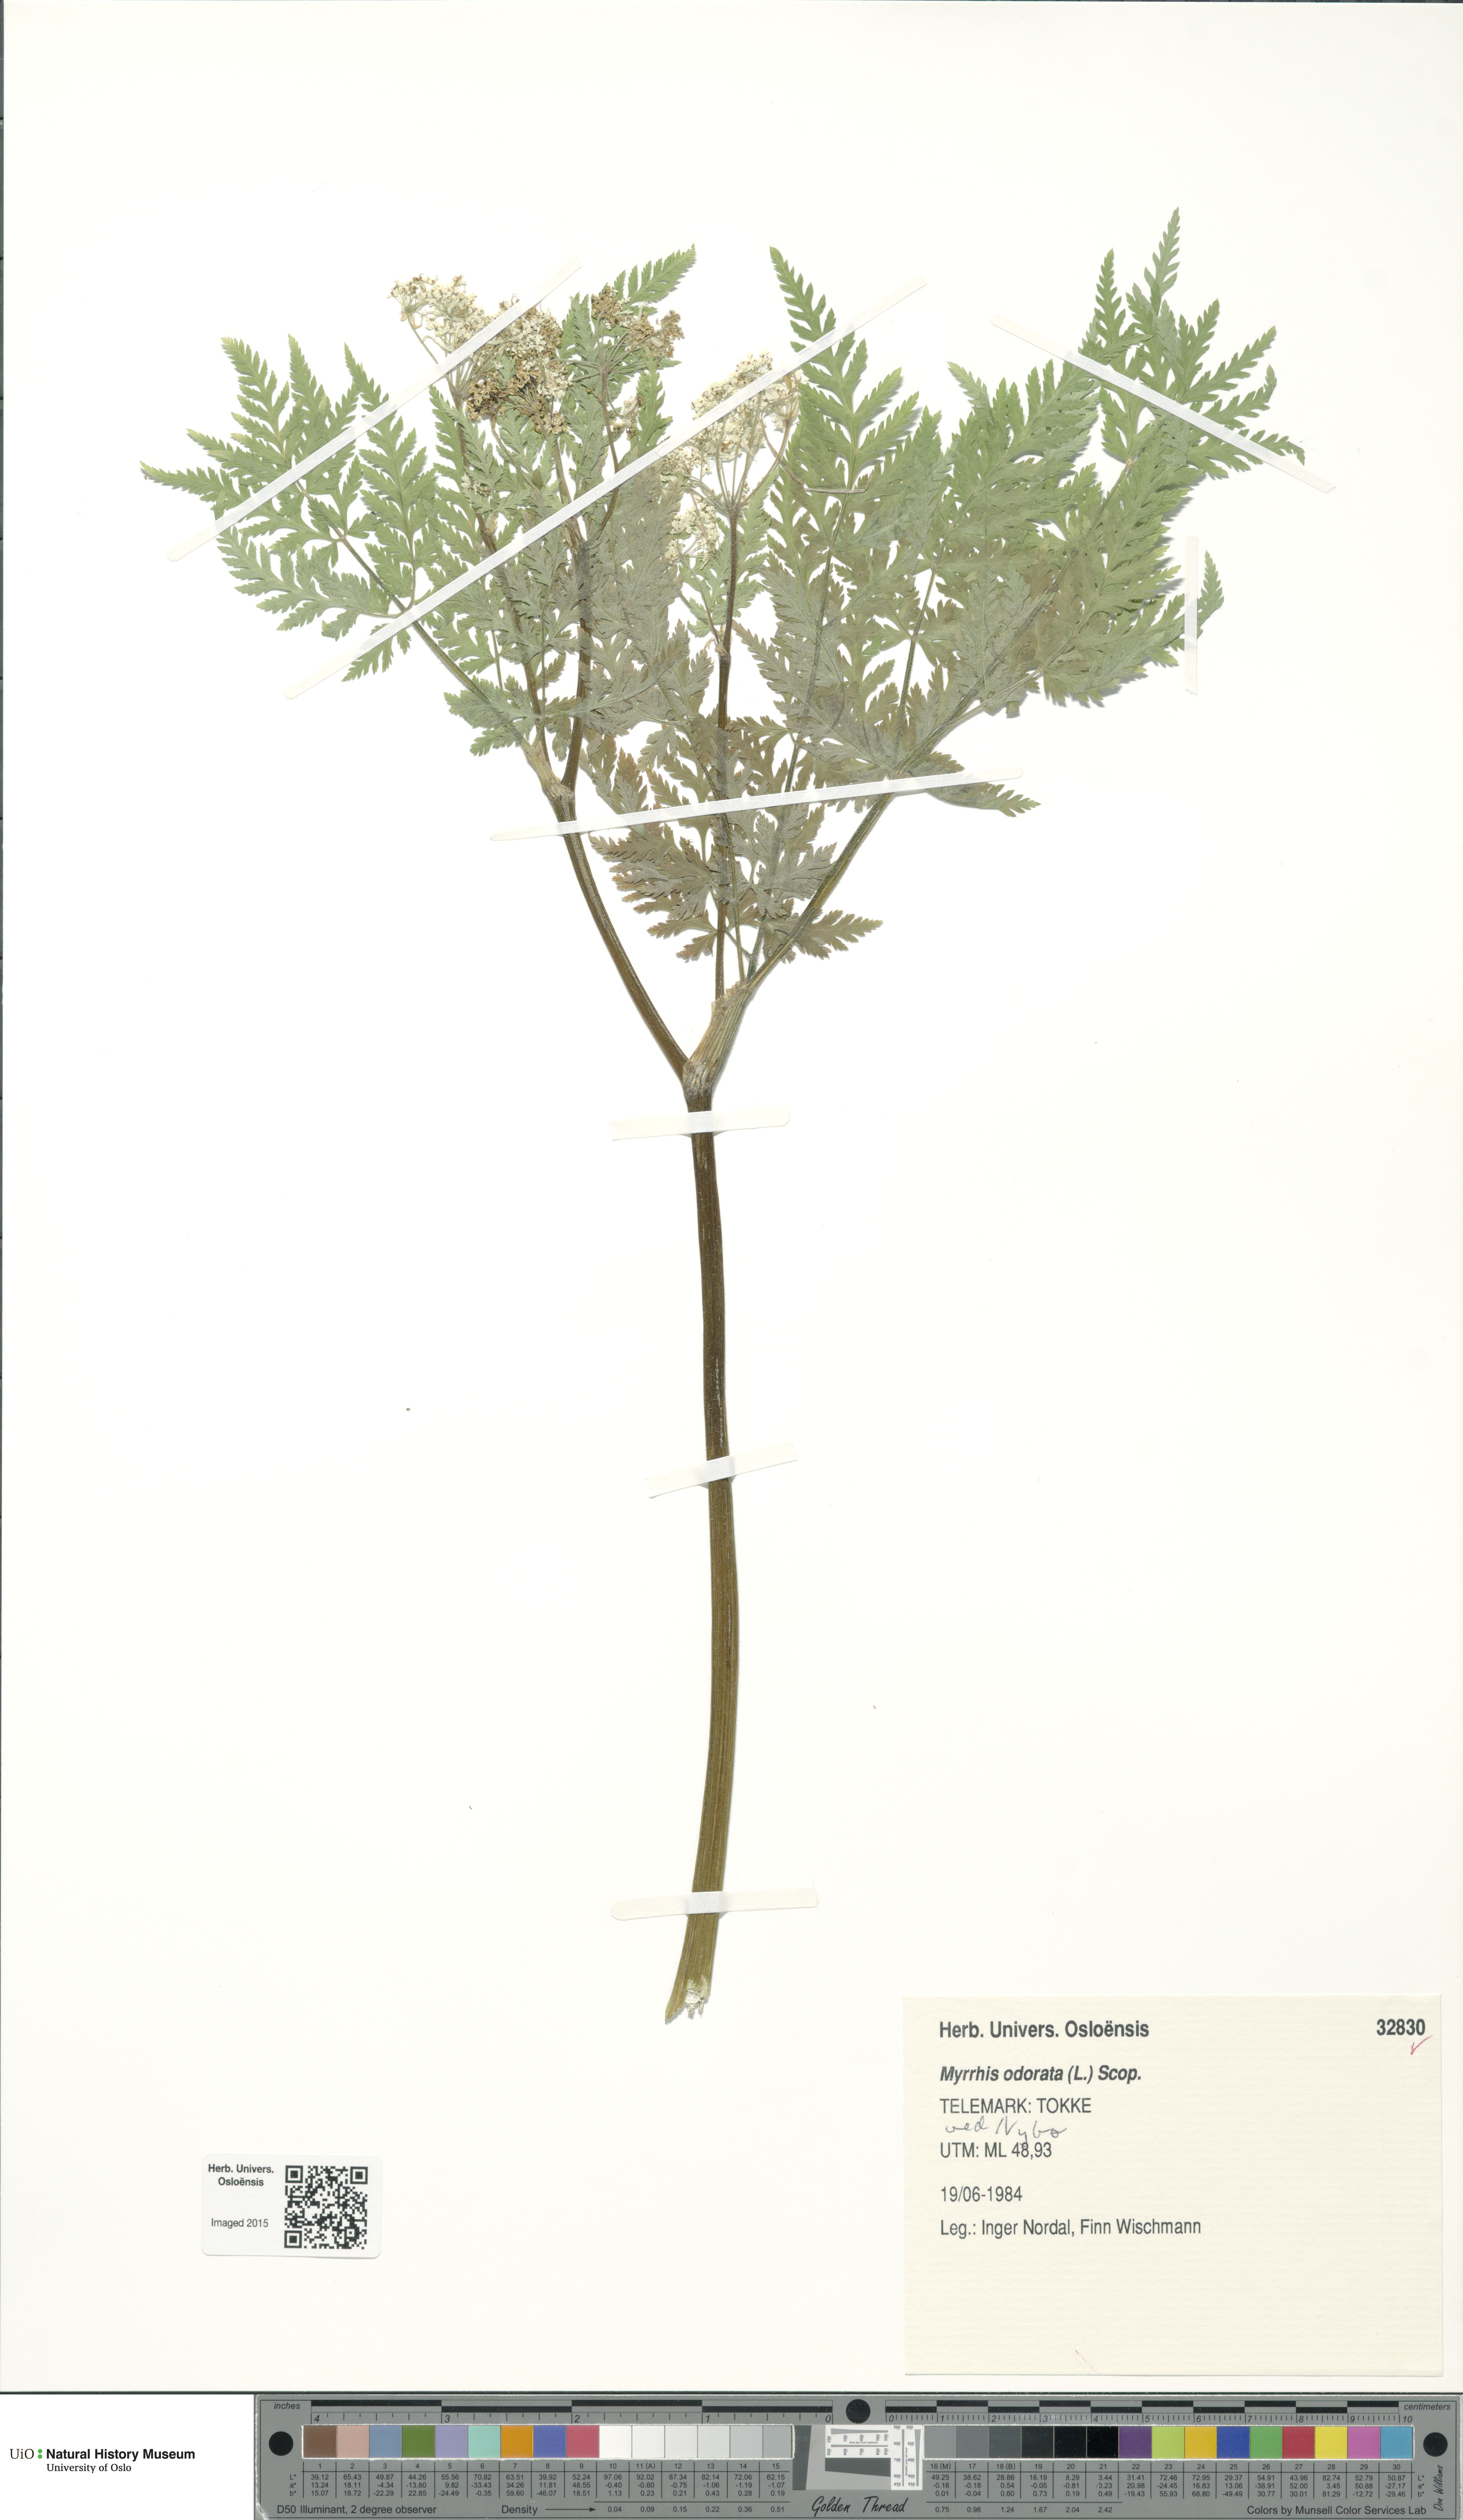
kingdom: Plantae
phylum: Tracheophyta
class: Magnoliopsida
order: Apiales
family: Apiaceae
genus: Myrrhis
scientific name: Myrrhis odorata
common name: Sweet cicely
